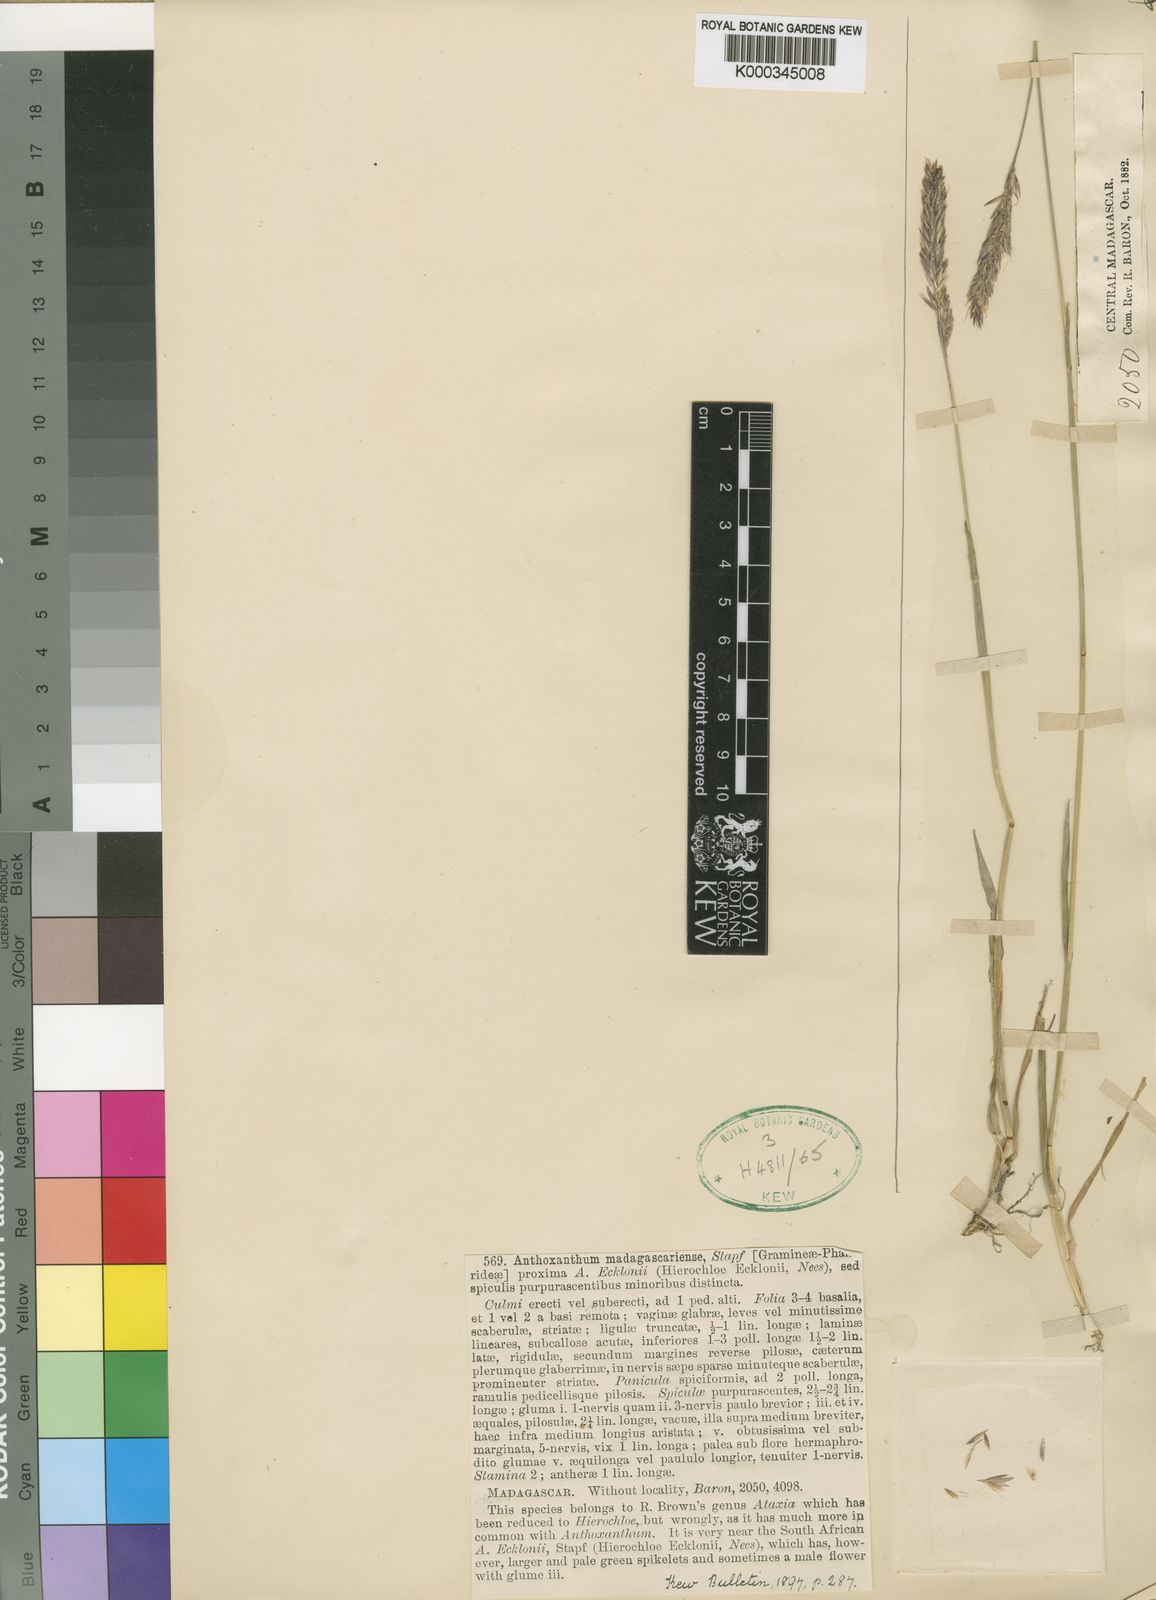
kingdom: Plantae
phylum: Tracheophyta
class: Liliopsida
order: Poales
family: Poaceae
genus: Anthoxanthum
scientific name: Anthoxanthum odoratum
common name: Sweet vernalgrass
